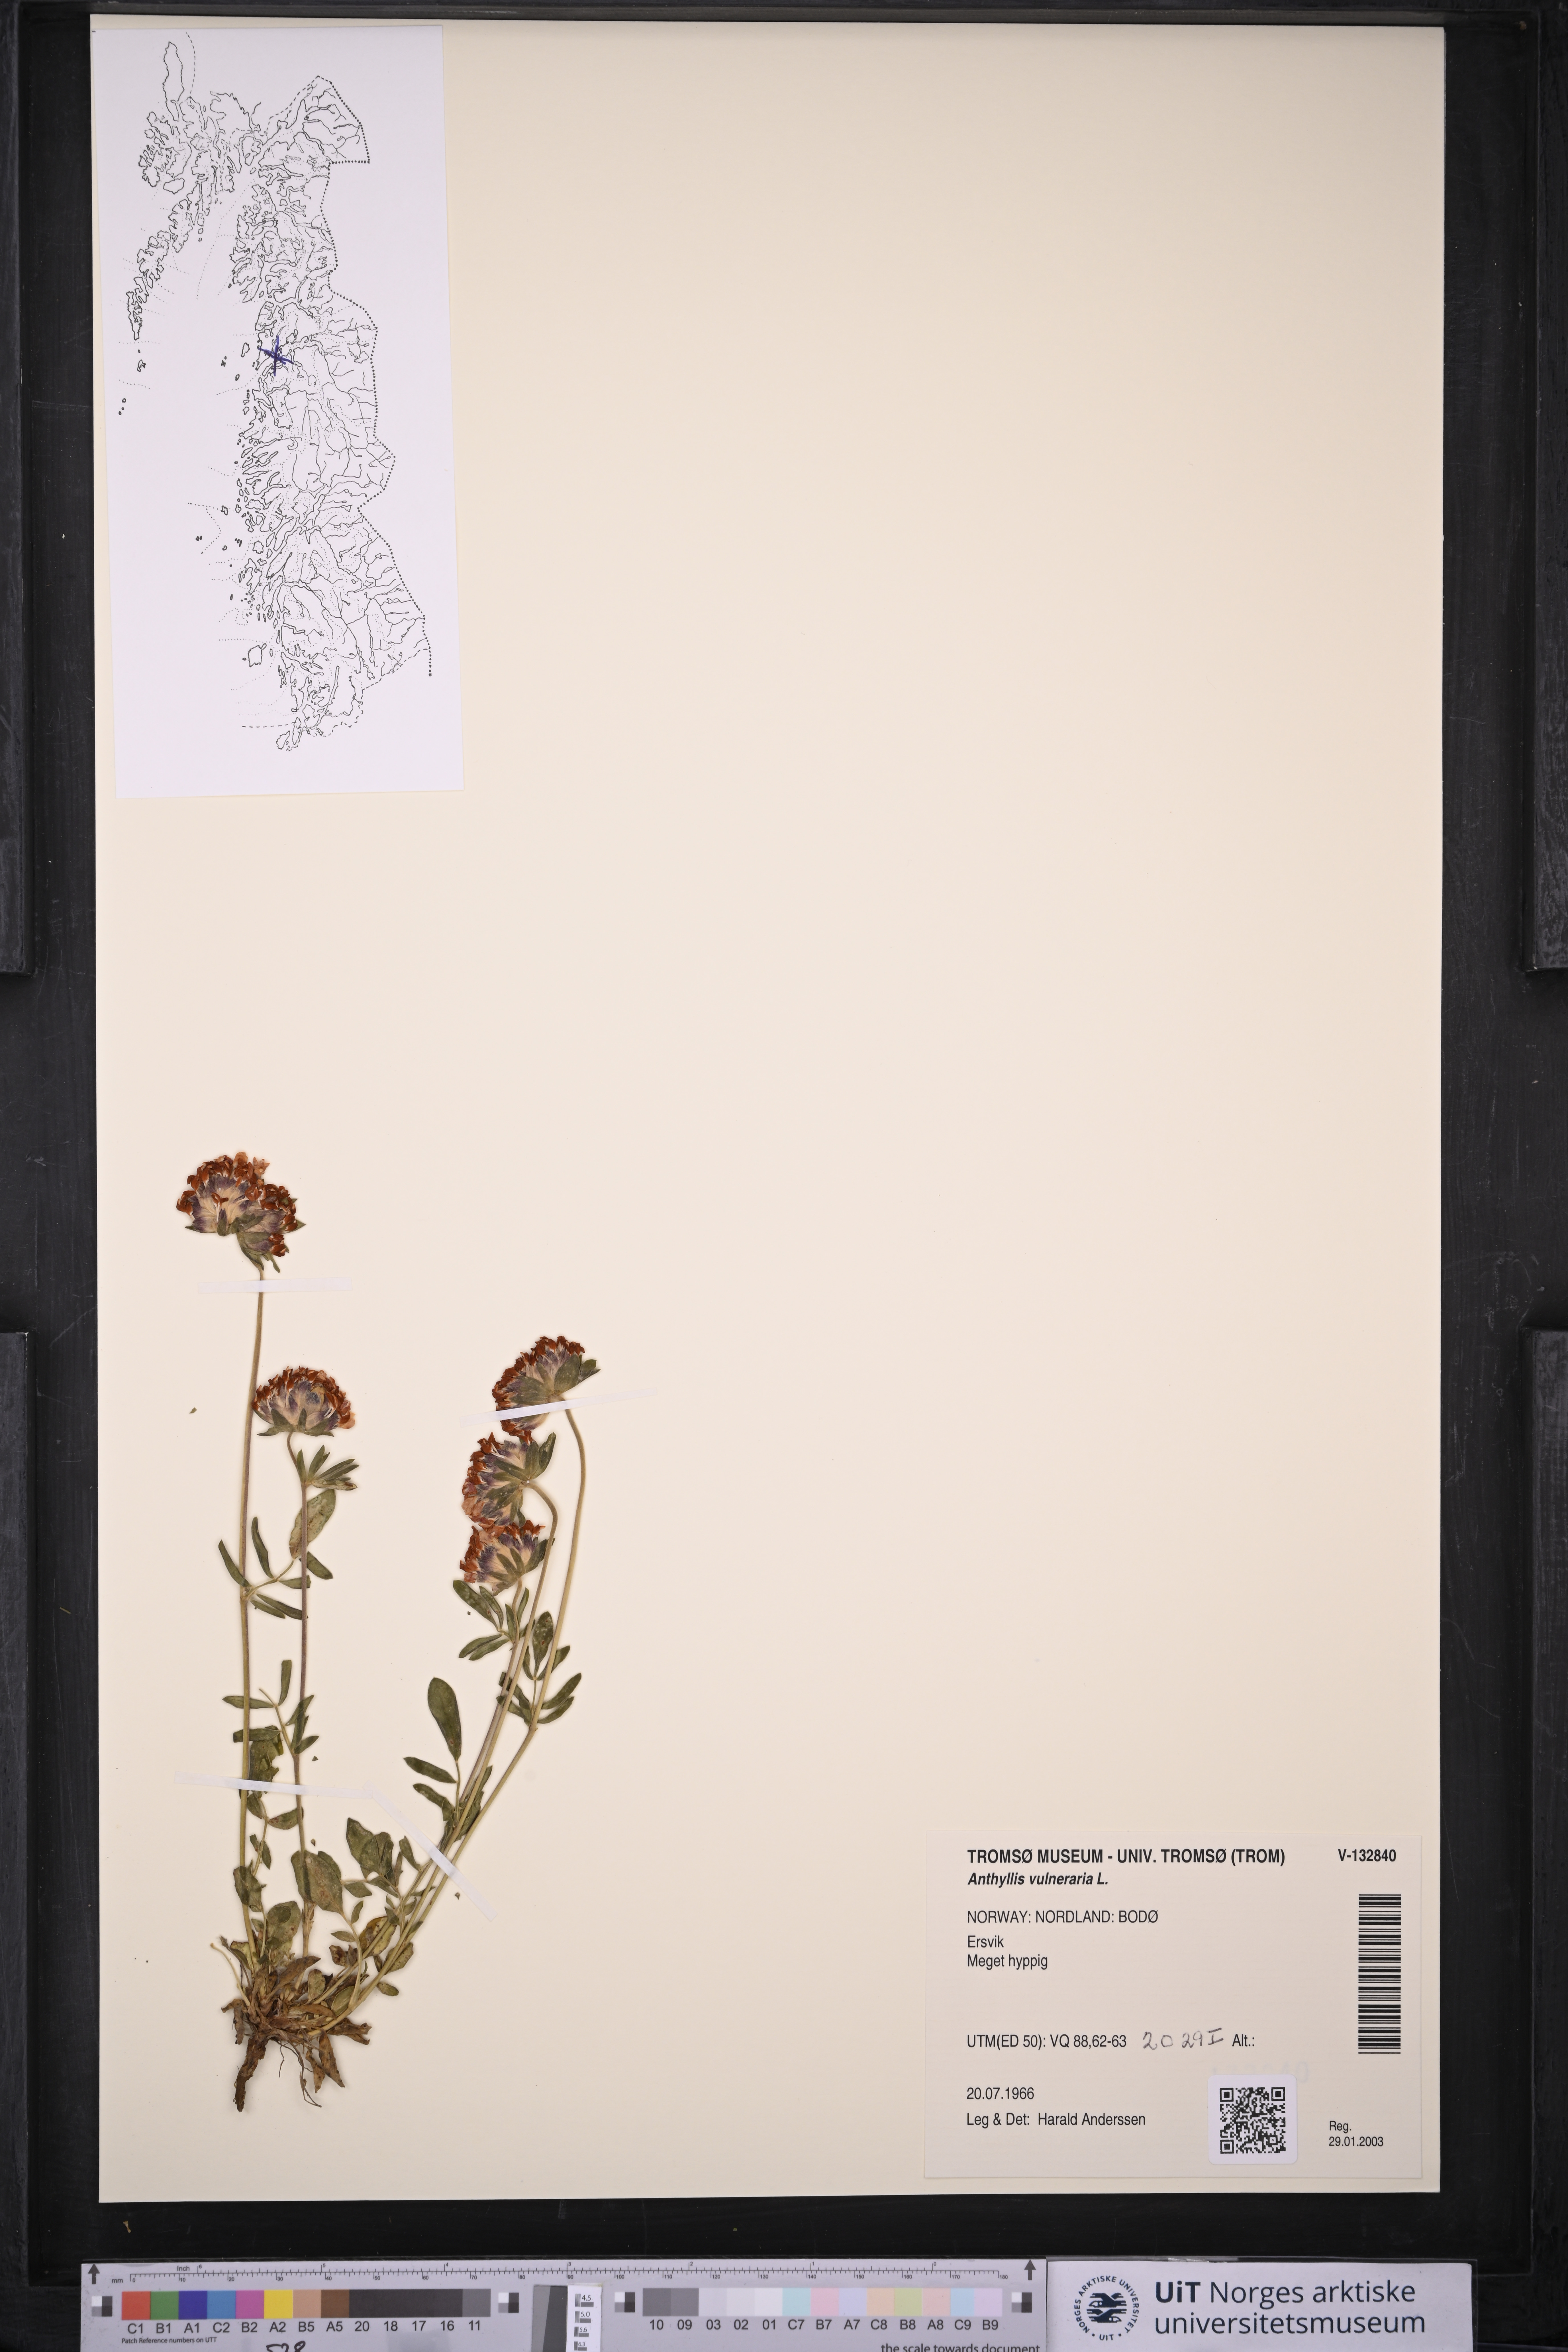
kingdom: Plantae
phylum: Tracheophyta
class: Magnoliopsida
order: Fabales
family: Fabaceae
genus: Anthyllis
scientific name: Anthyllis vulneraria
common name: Kidney vetch
